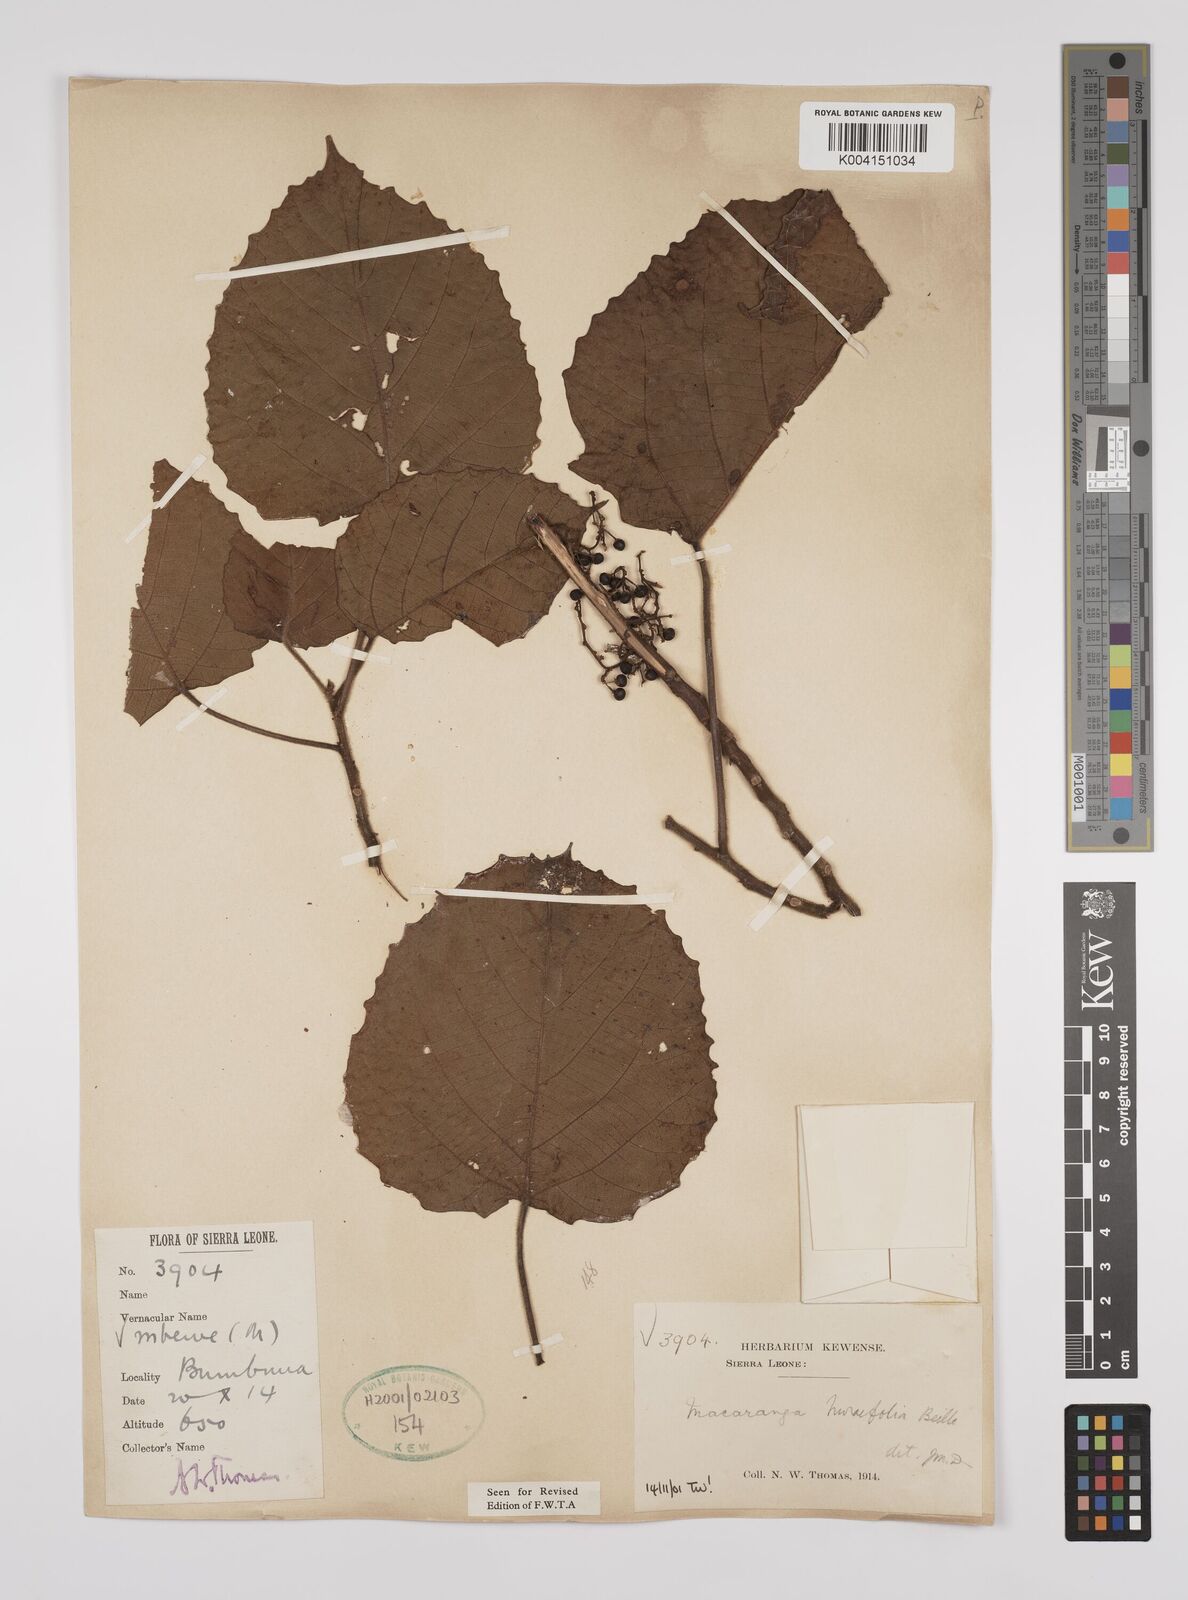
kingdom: Plantae
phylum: Tracheophyta
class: Magnoliopsida
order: Malpighiales
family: Euphorbiaceae
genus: Macaranga
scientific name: Macaranga hurifolia
